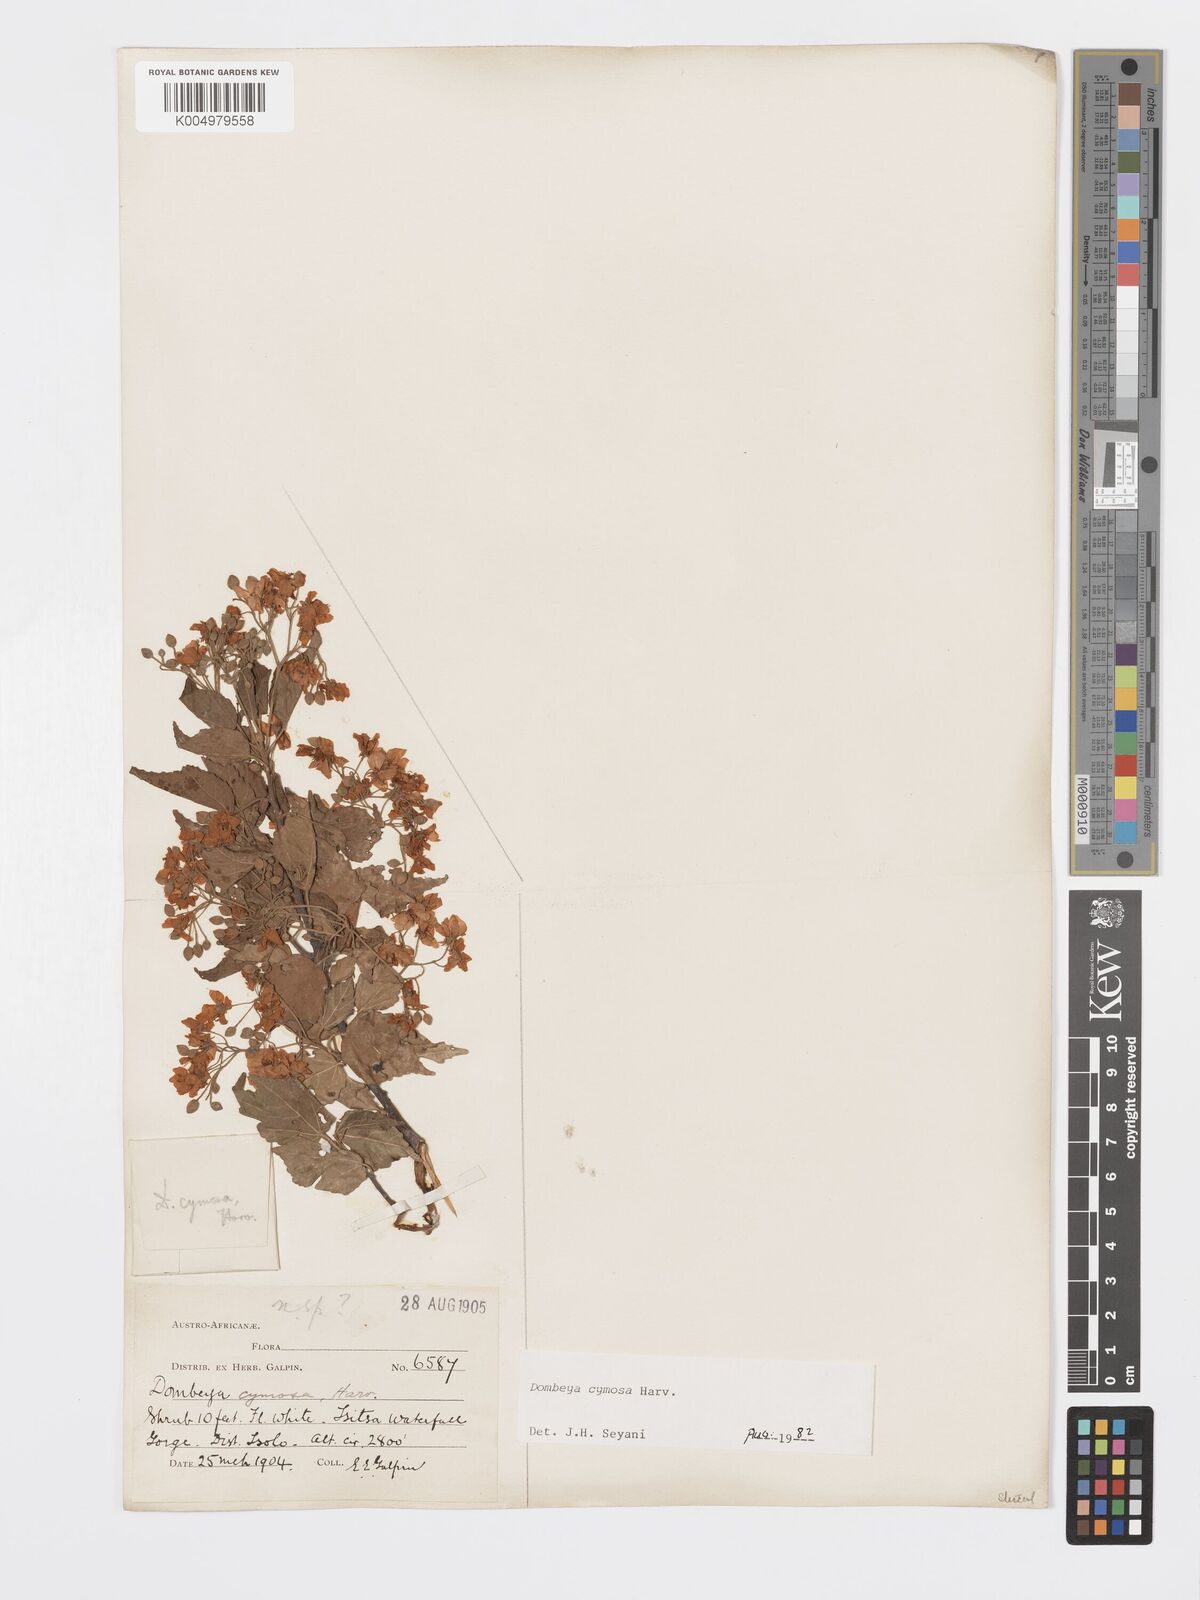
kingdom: Plantae
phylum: Tracheophyta
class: Magnoliopsida
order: Malvales
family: Malvaceae
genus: Dombeya
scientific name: Dombeya cymosa
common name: Hairless dombeya
